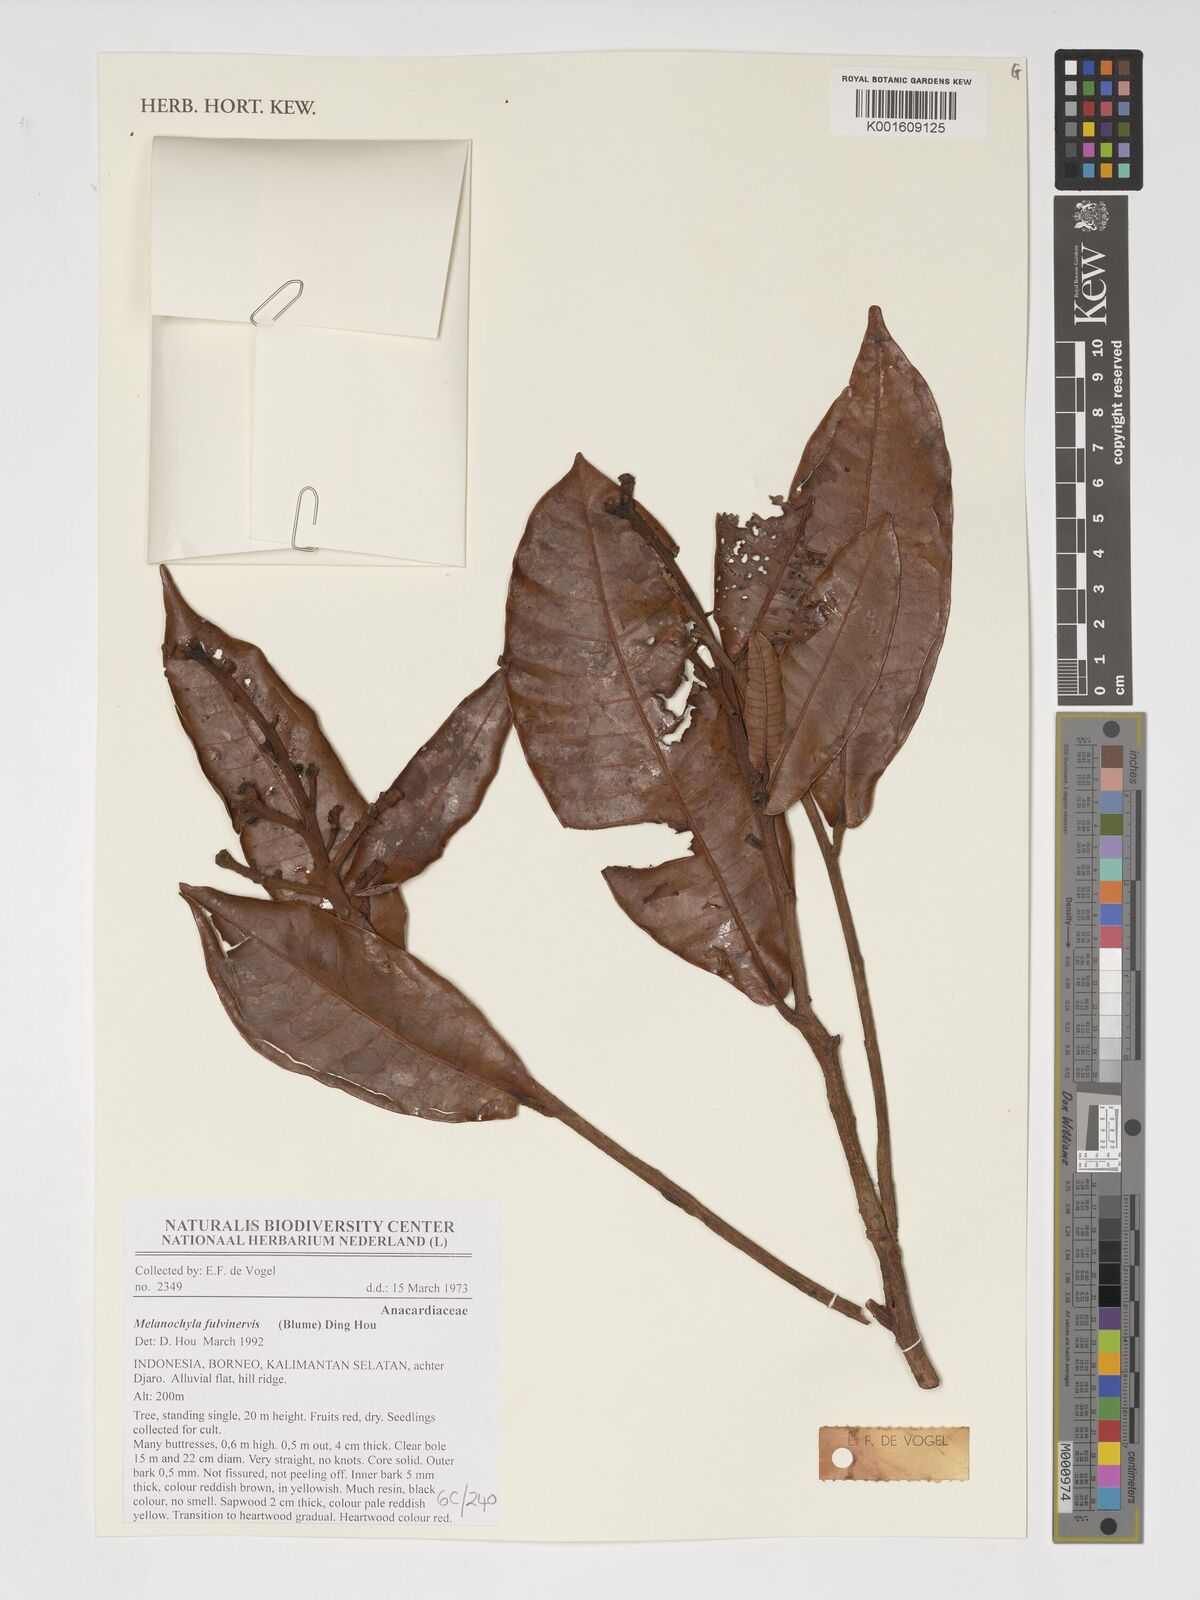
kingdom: Plantae
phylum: Tracheophyta
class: Magnoliopsida
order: Sapindales
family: Anacardiaceae
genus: Melanochyla
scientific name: Melanochyla fulvinervia
